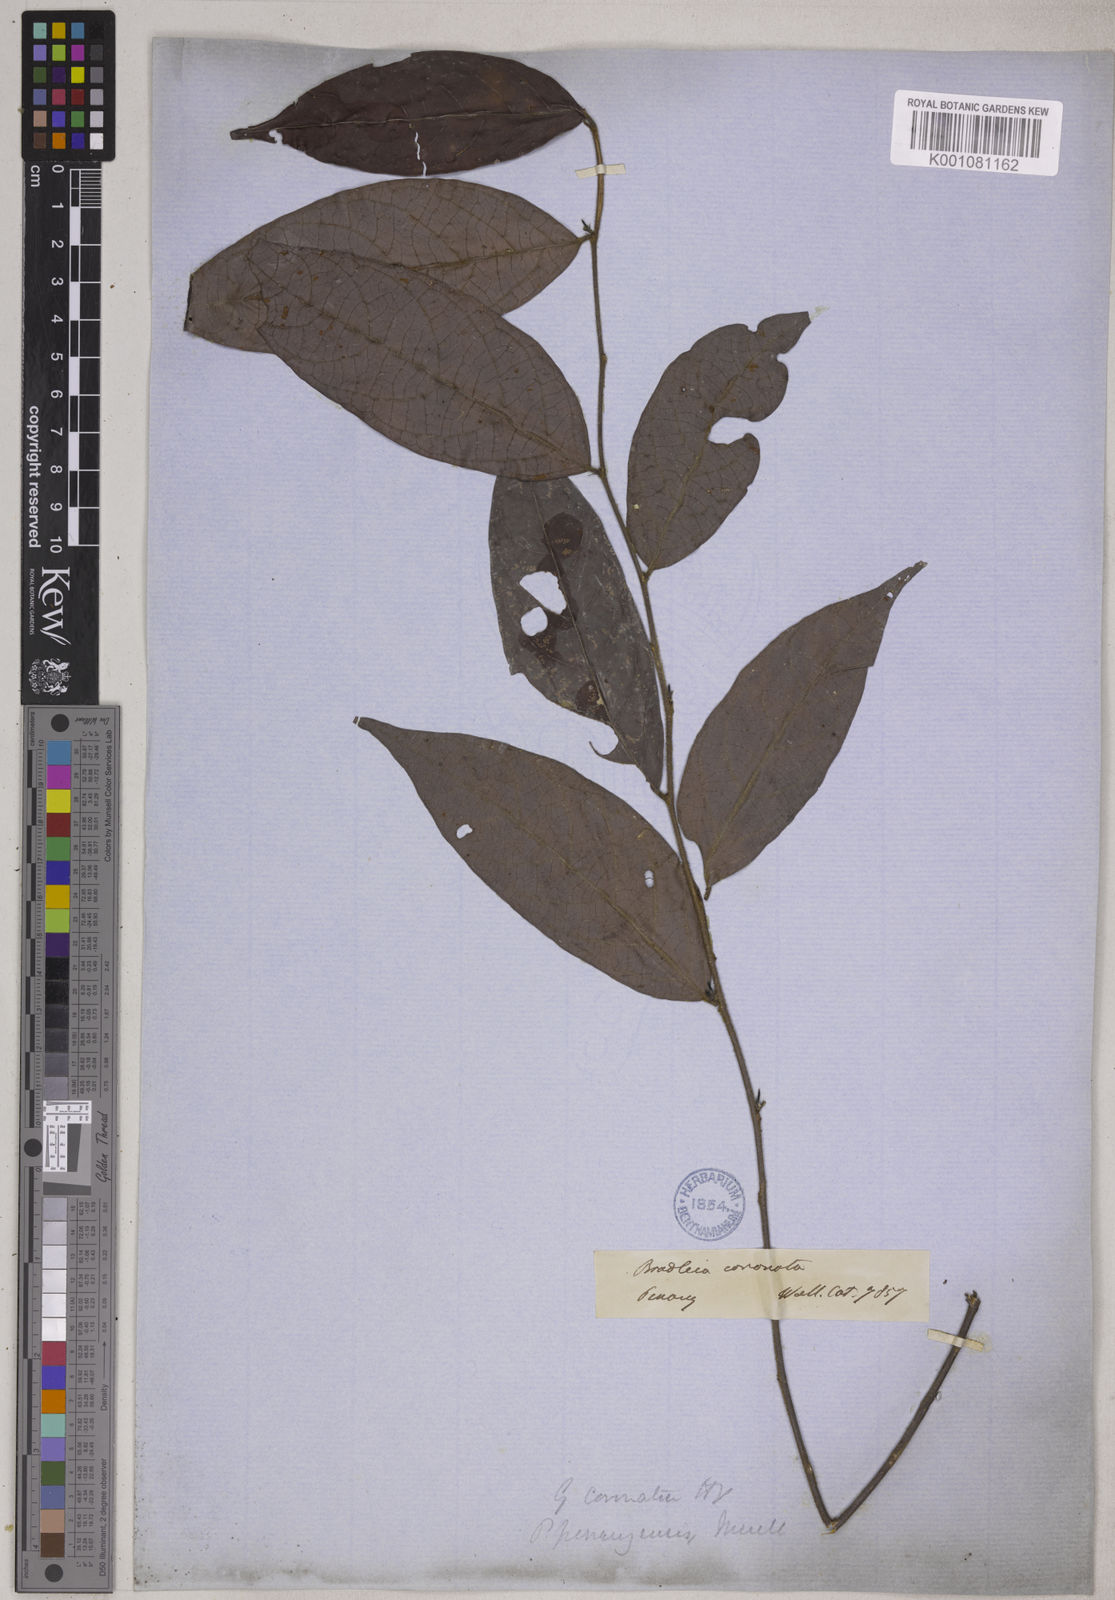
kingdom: Plantae
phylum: Tracheophyta
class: Magnoliopsida
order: Malpighiales
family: Phyllanthaceae
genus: Glochidion
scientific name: Glochidion rubrum
